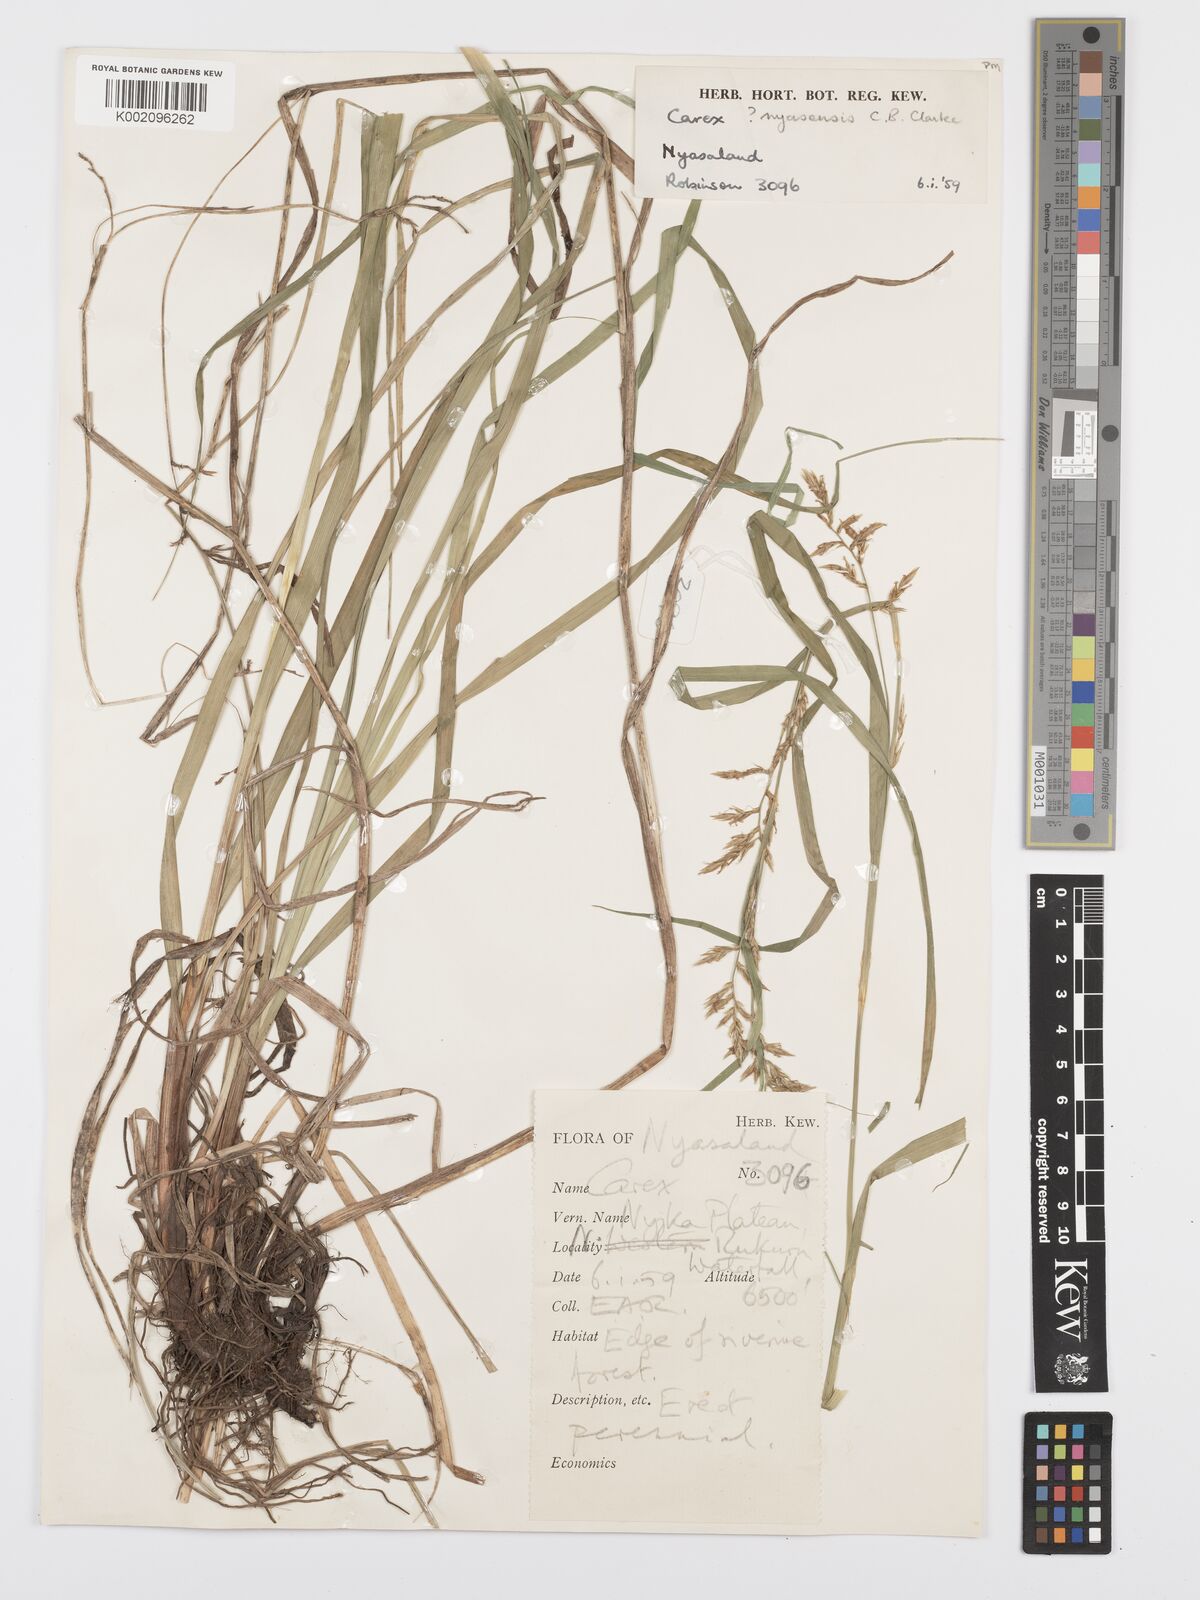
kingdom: Plantae
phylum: Tracheophyta
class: Liliopsida
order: Poales
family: Cyperaceae
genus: Carex
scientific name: Carex spicatopaniculata
